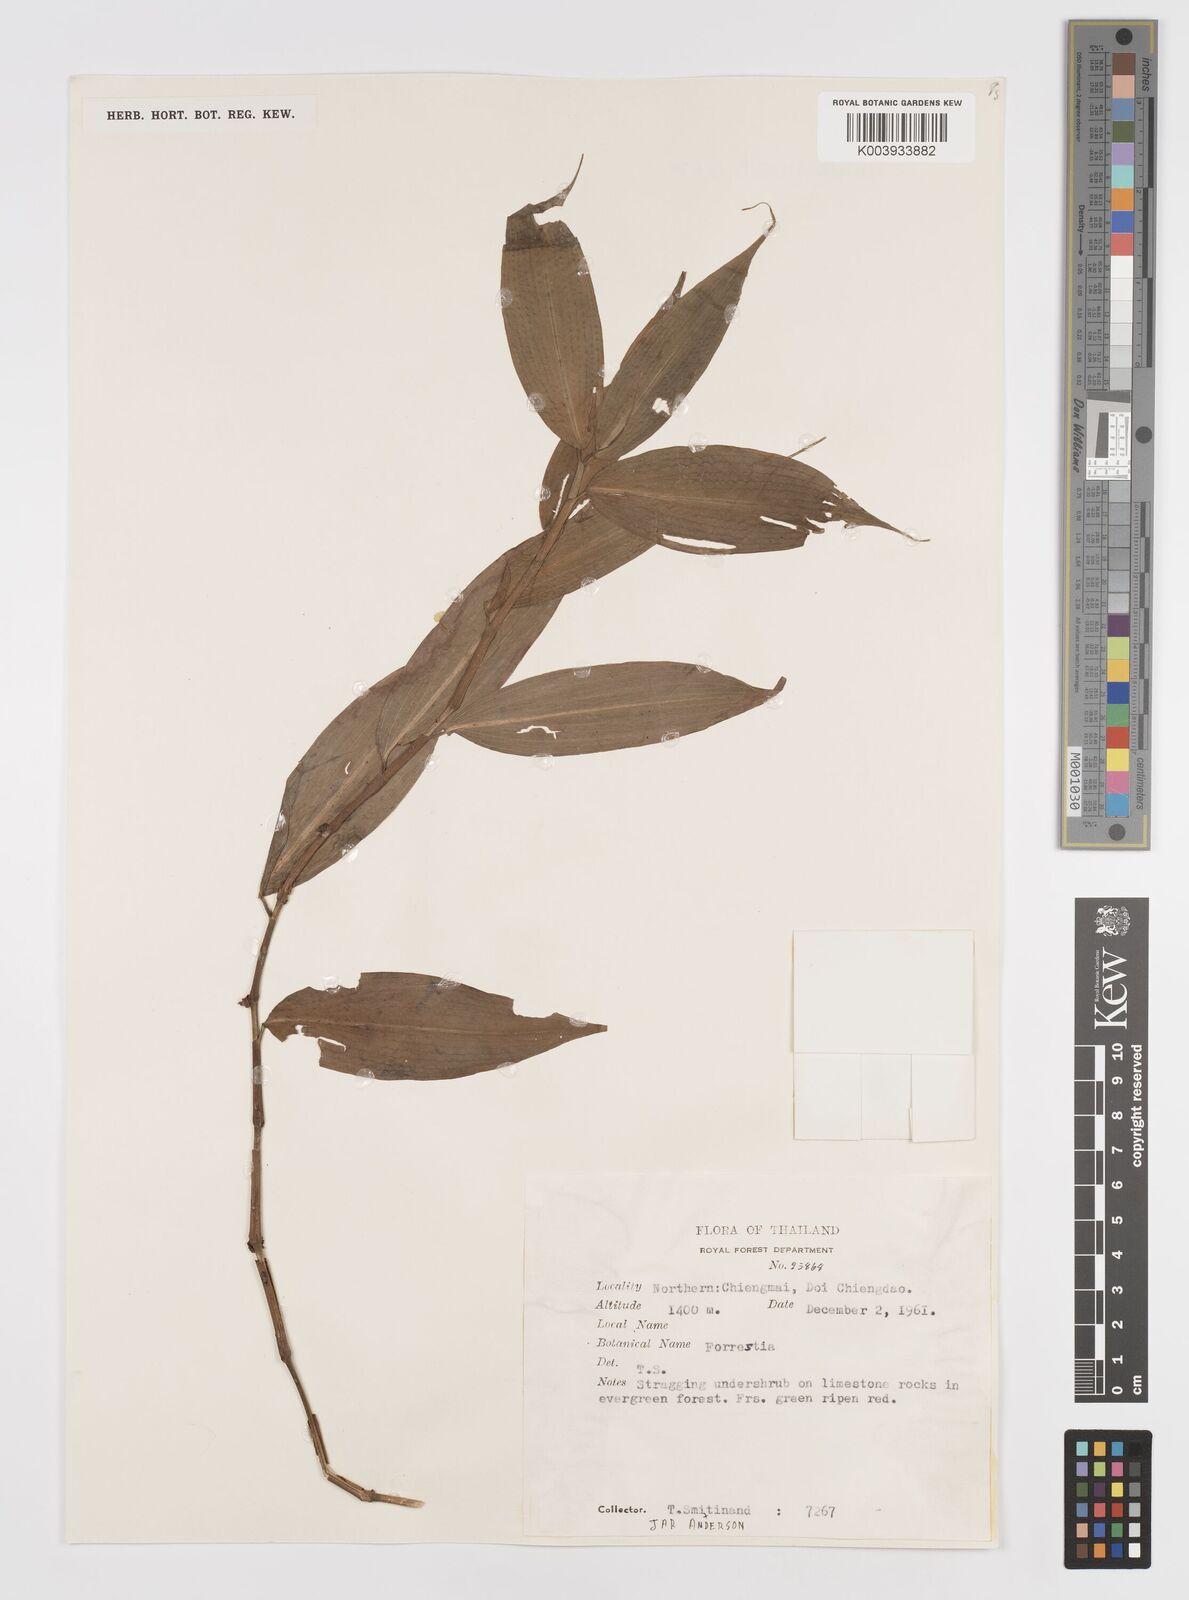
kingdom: Plantae
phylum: Tracheophyta
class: Liliopsida
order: Commelinales
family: Commelinaceae
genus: Amischotolype
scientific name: Amischotolype
